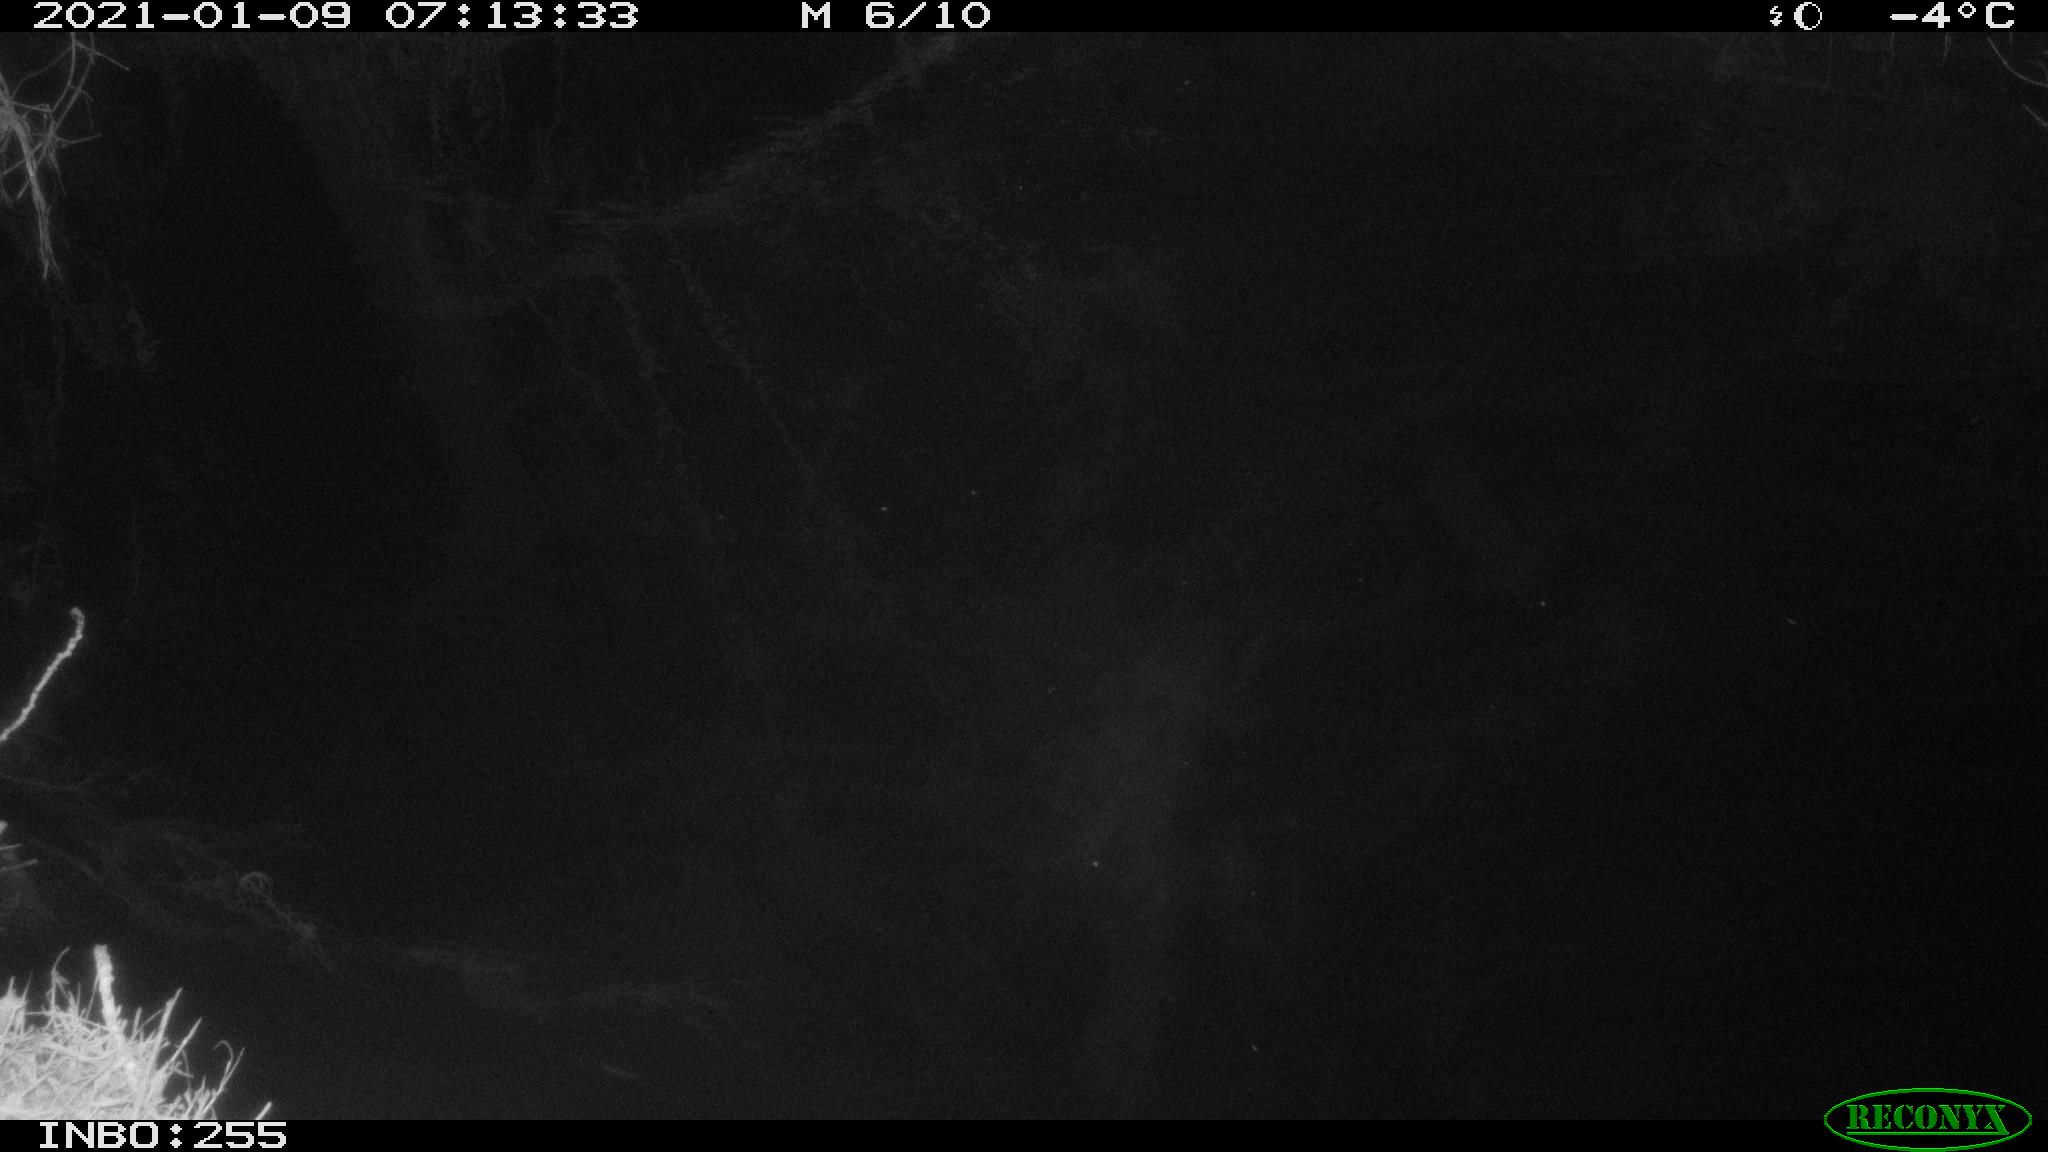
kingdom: Animalia
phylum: Chordata
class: Mammalia
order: Rodentia
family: Muridae
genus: Rattus
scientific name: Rattus norvegicus
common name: Brown rat
